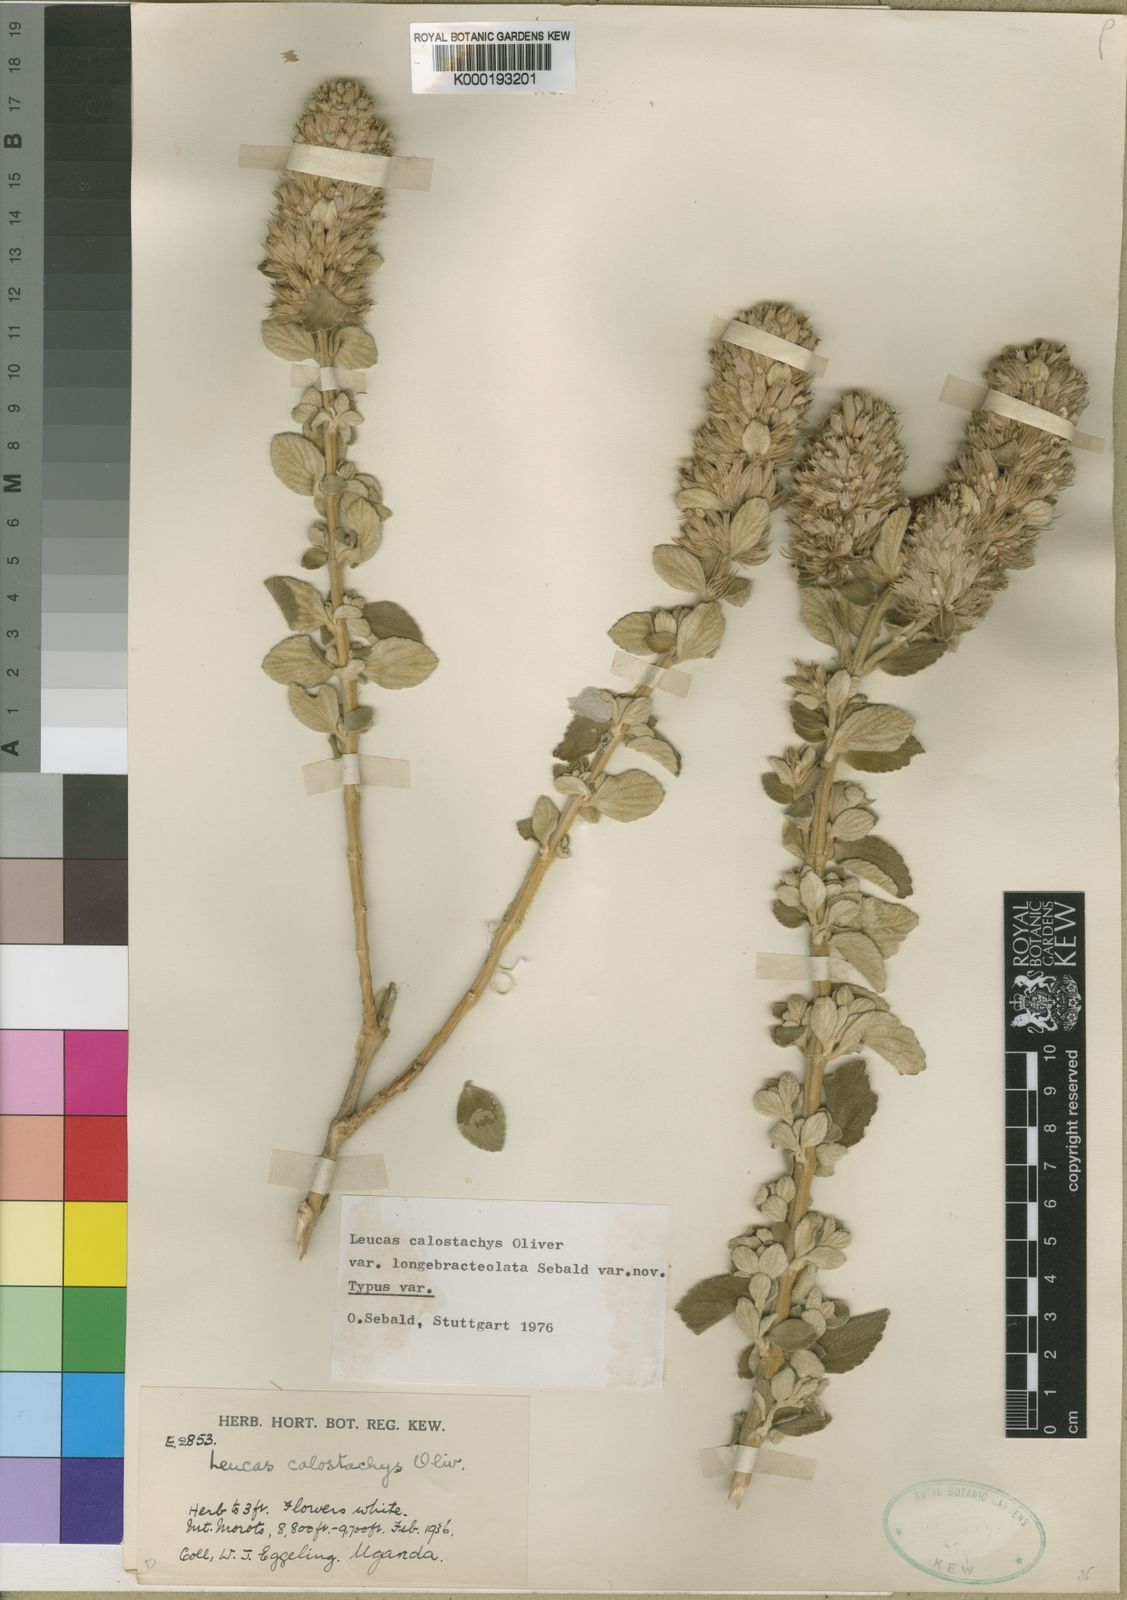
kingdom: Plantae
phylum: Tracheophyta
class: Magnoliopsida
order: Lamiales
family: Lamiaceae
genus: Leucas
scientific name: Leucas calostachys
